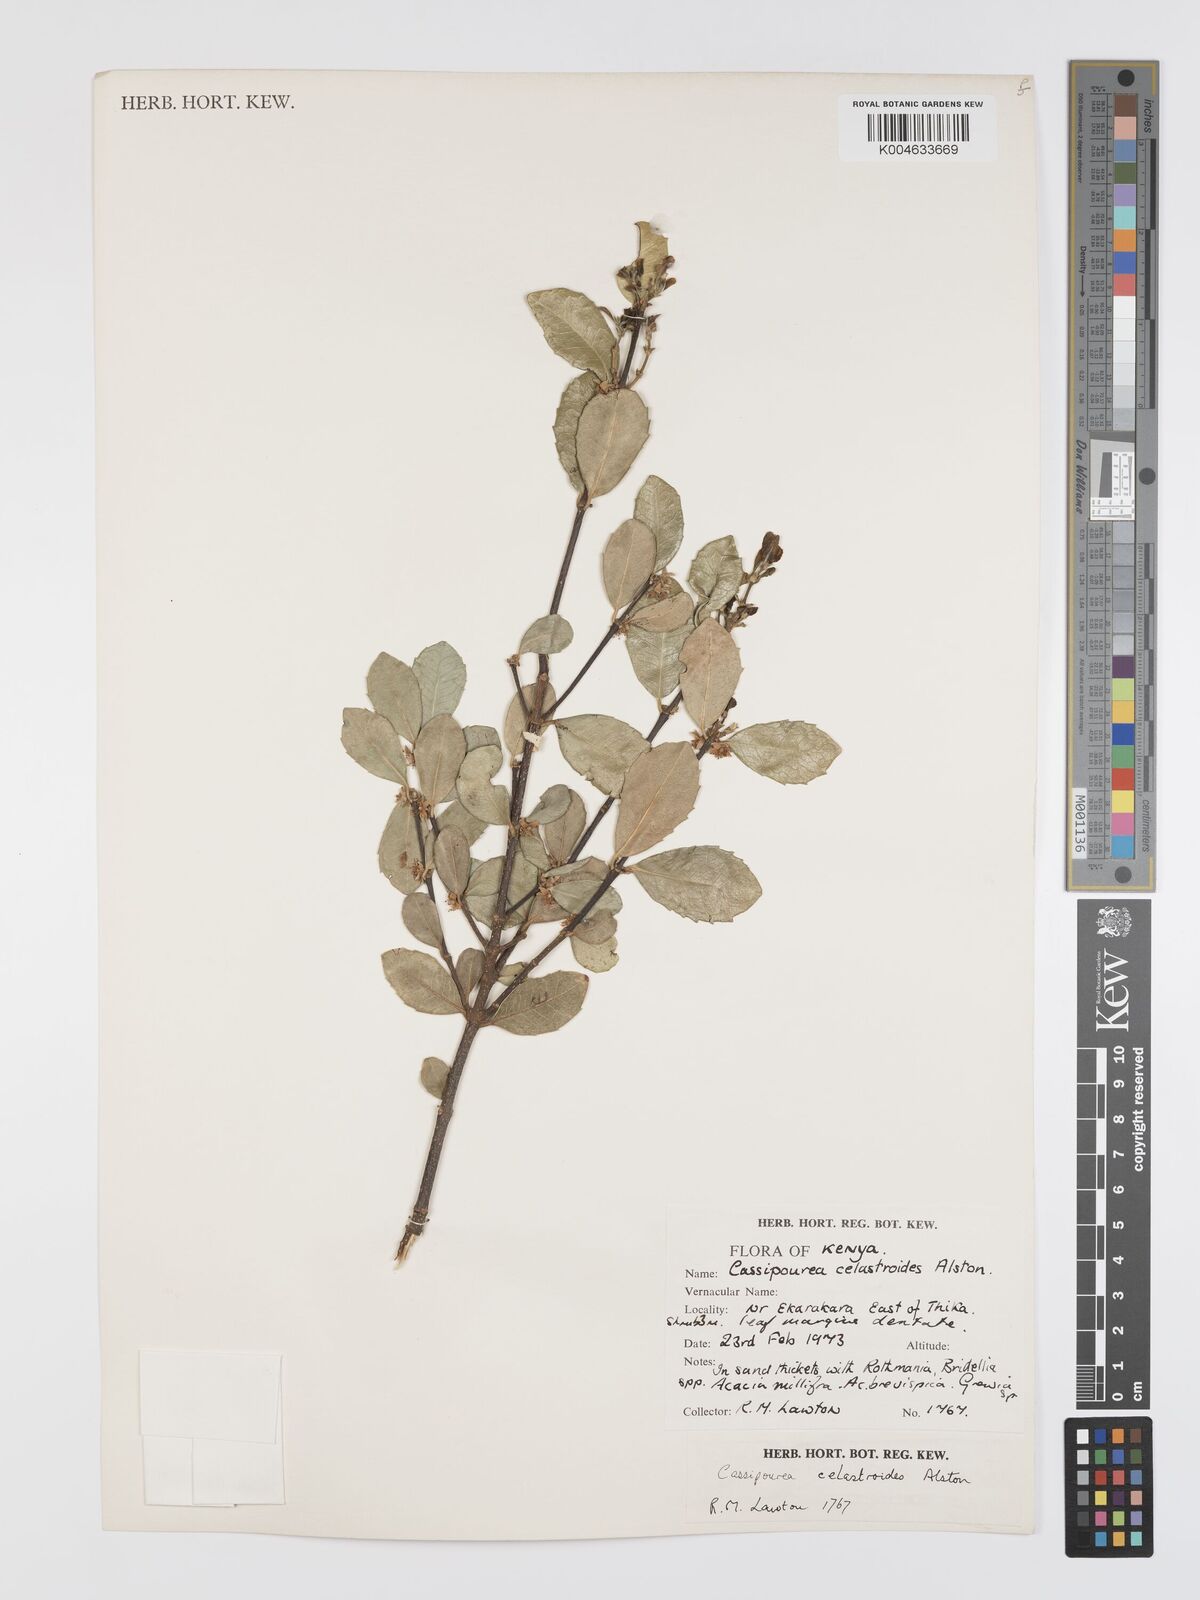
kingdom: Plantae
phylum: Tracheophyta
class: Magnoliopsida
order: Malpighiales
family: Rhizophoraceae
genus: Cassipourea
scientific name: Cassipourea celastroides
